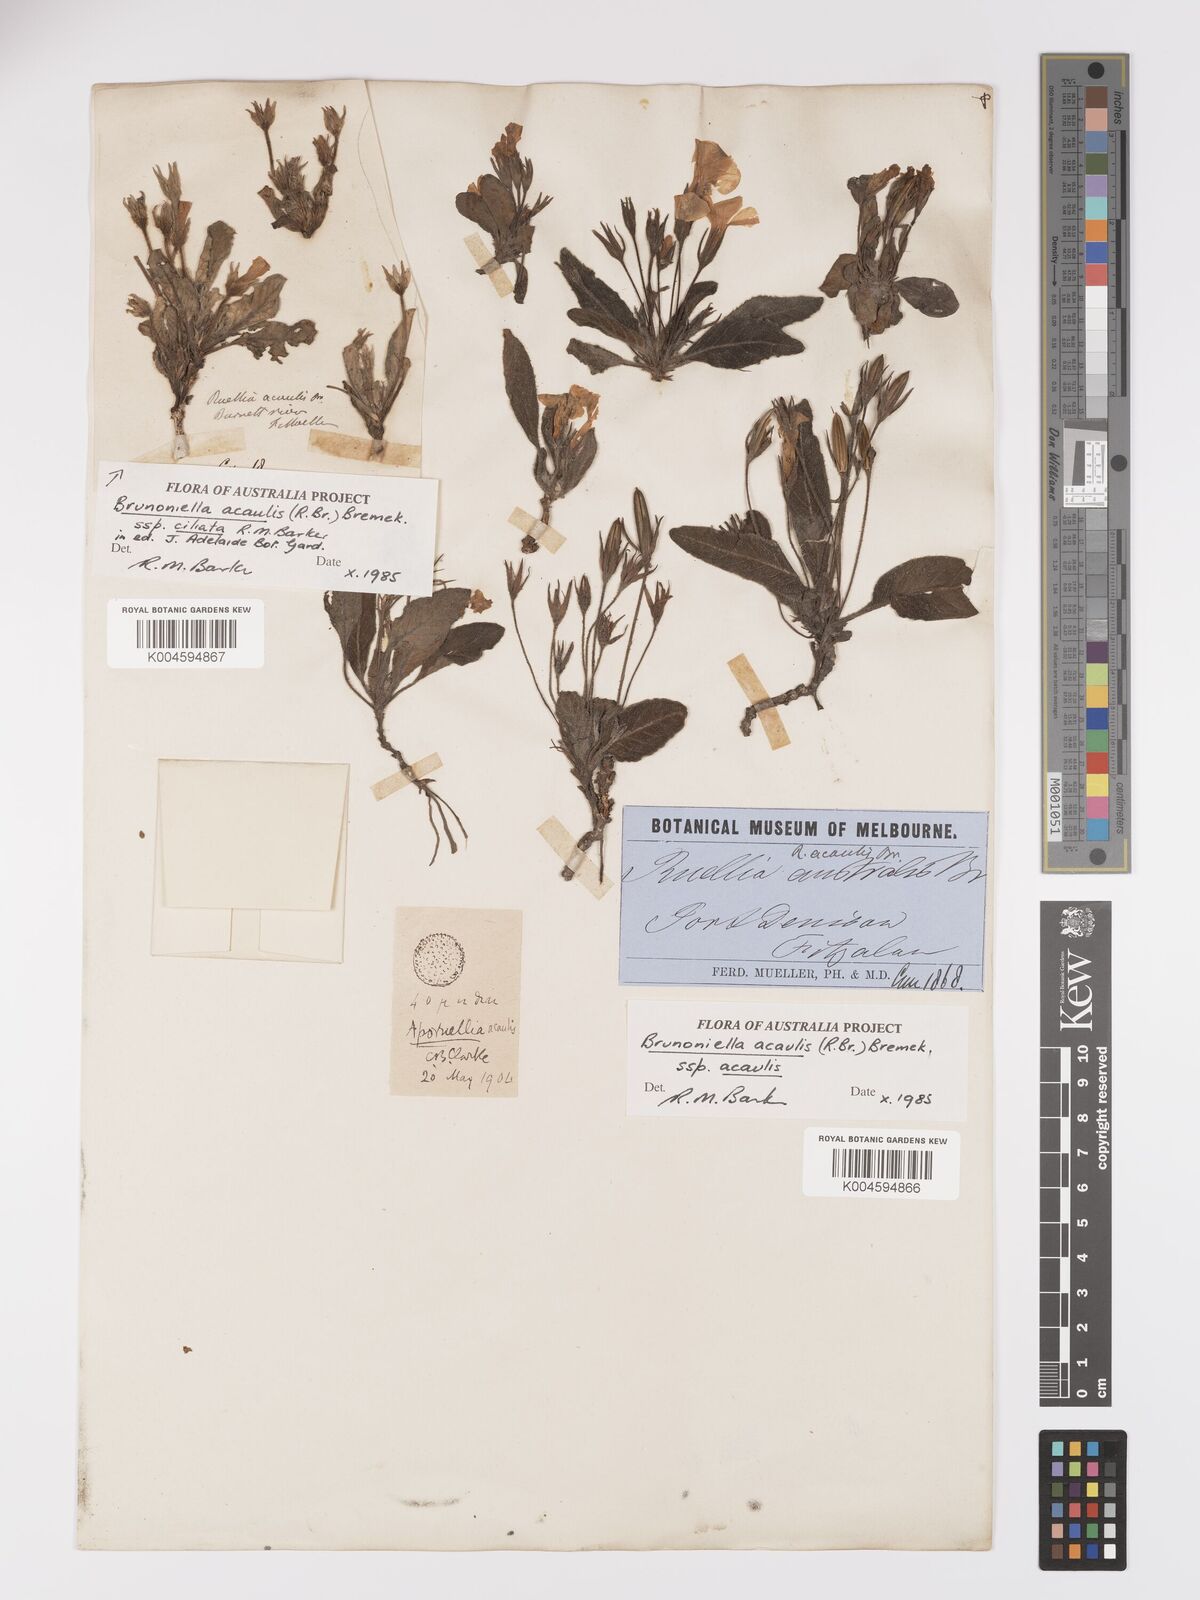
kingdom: Plantae
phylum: Tracheophyta
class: Magnoliopsida
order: Lamiales
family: Acanthaceae
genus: Brunoniella
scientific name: Brunoniella acaulis
